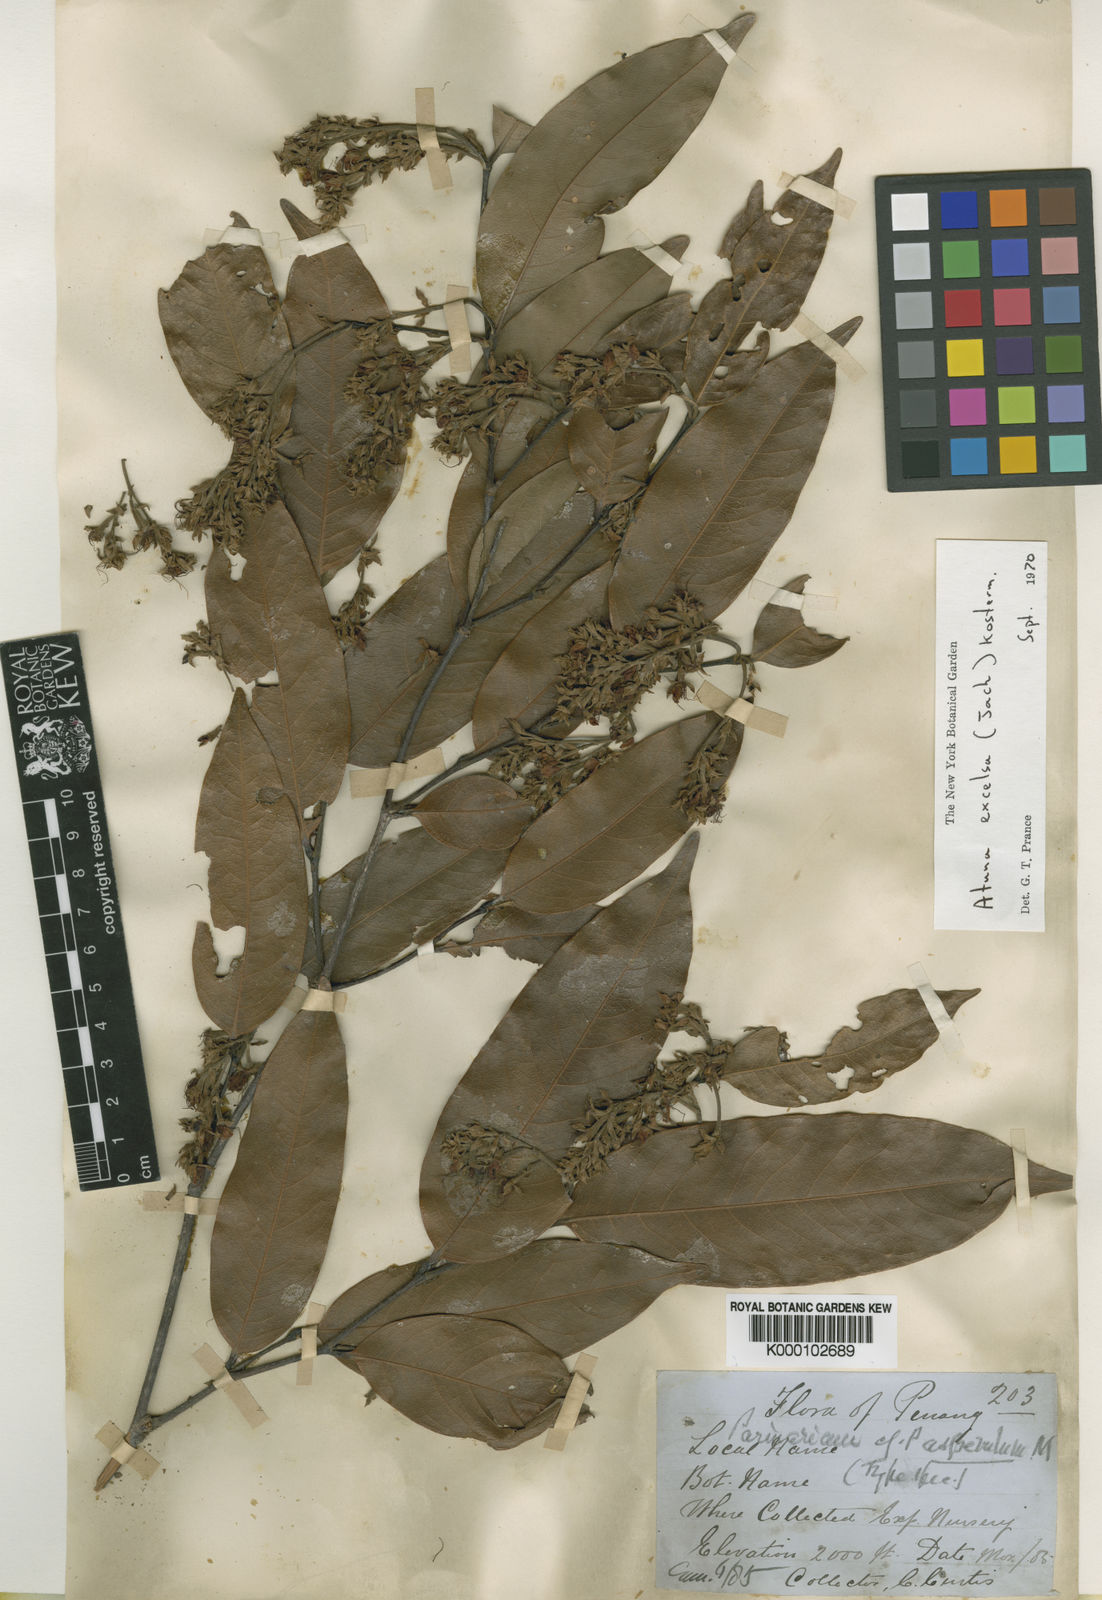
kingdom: Plantae
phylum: Tracheophyta
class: Magnoliopsida
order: Malpighiales
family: Chrysobalanaceae
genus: Atuna
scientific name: Atuna excelsa
